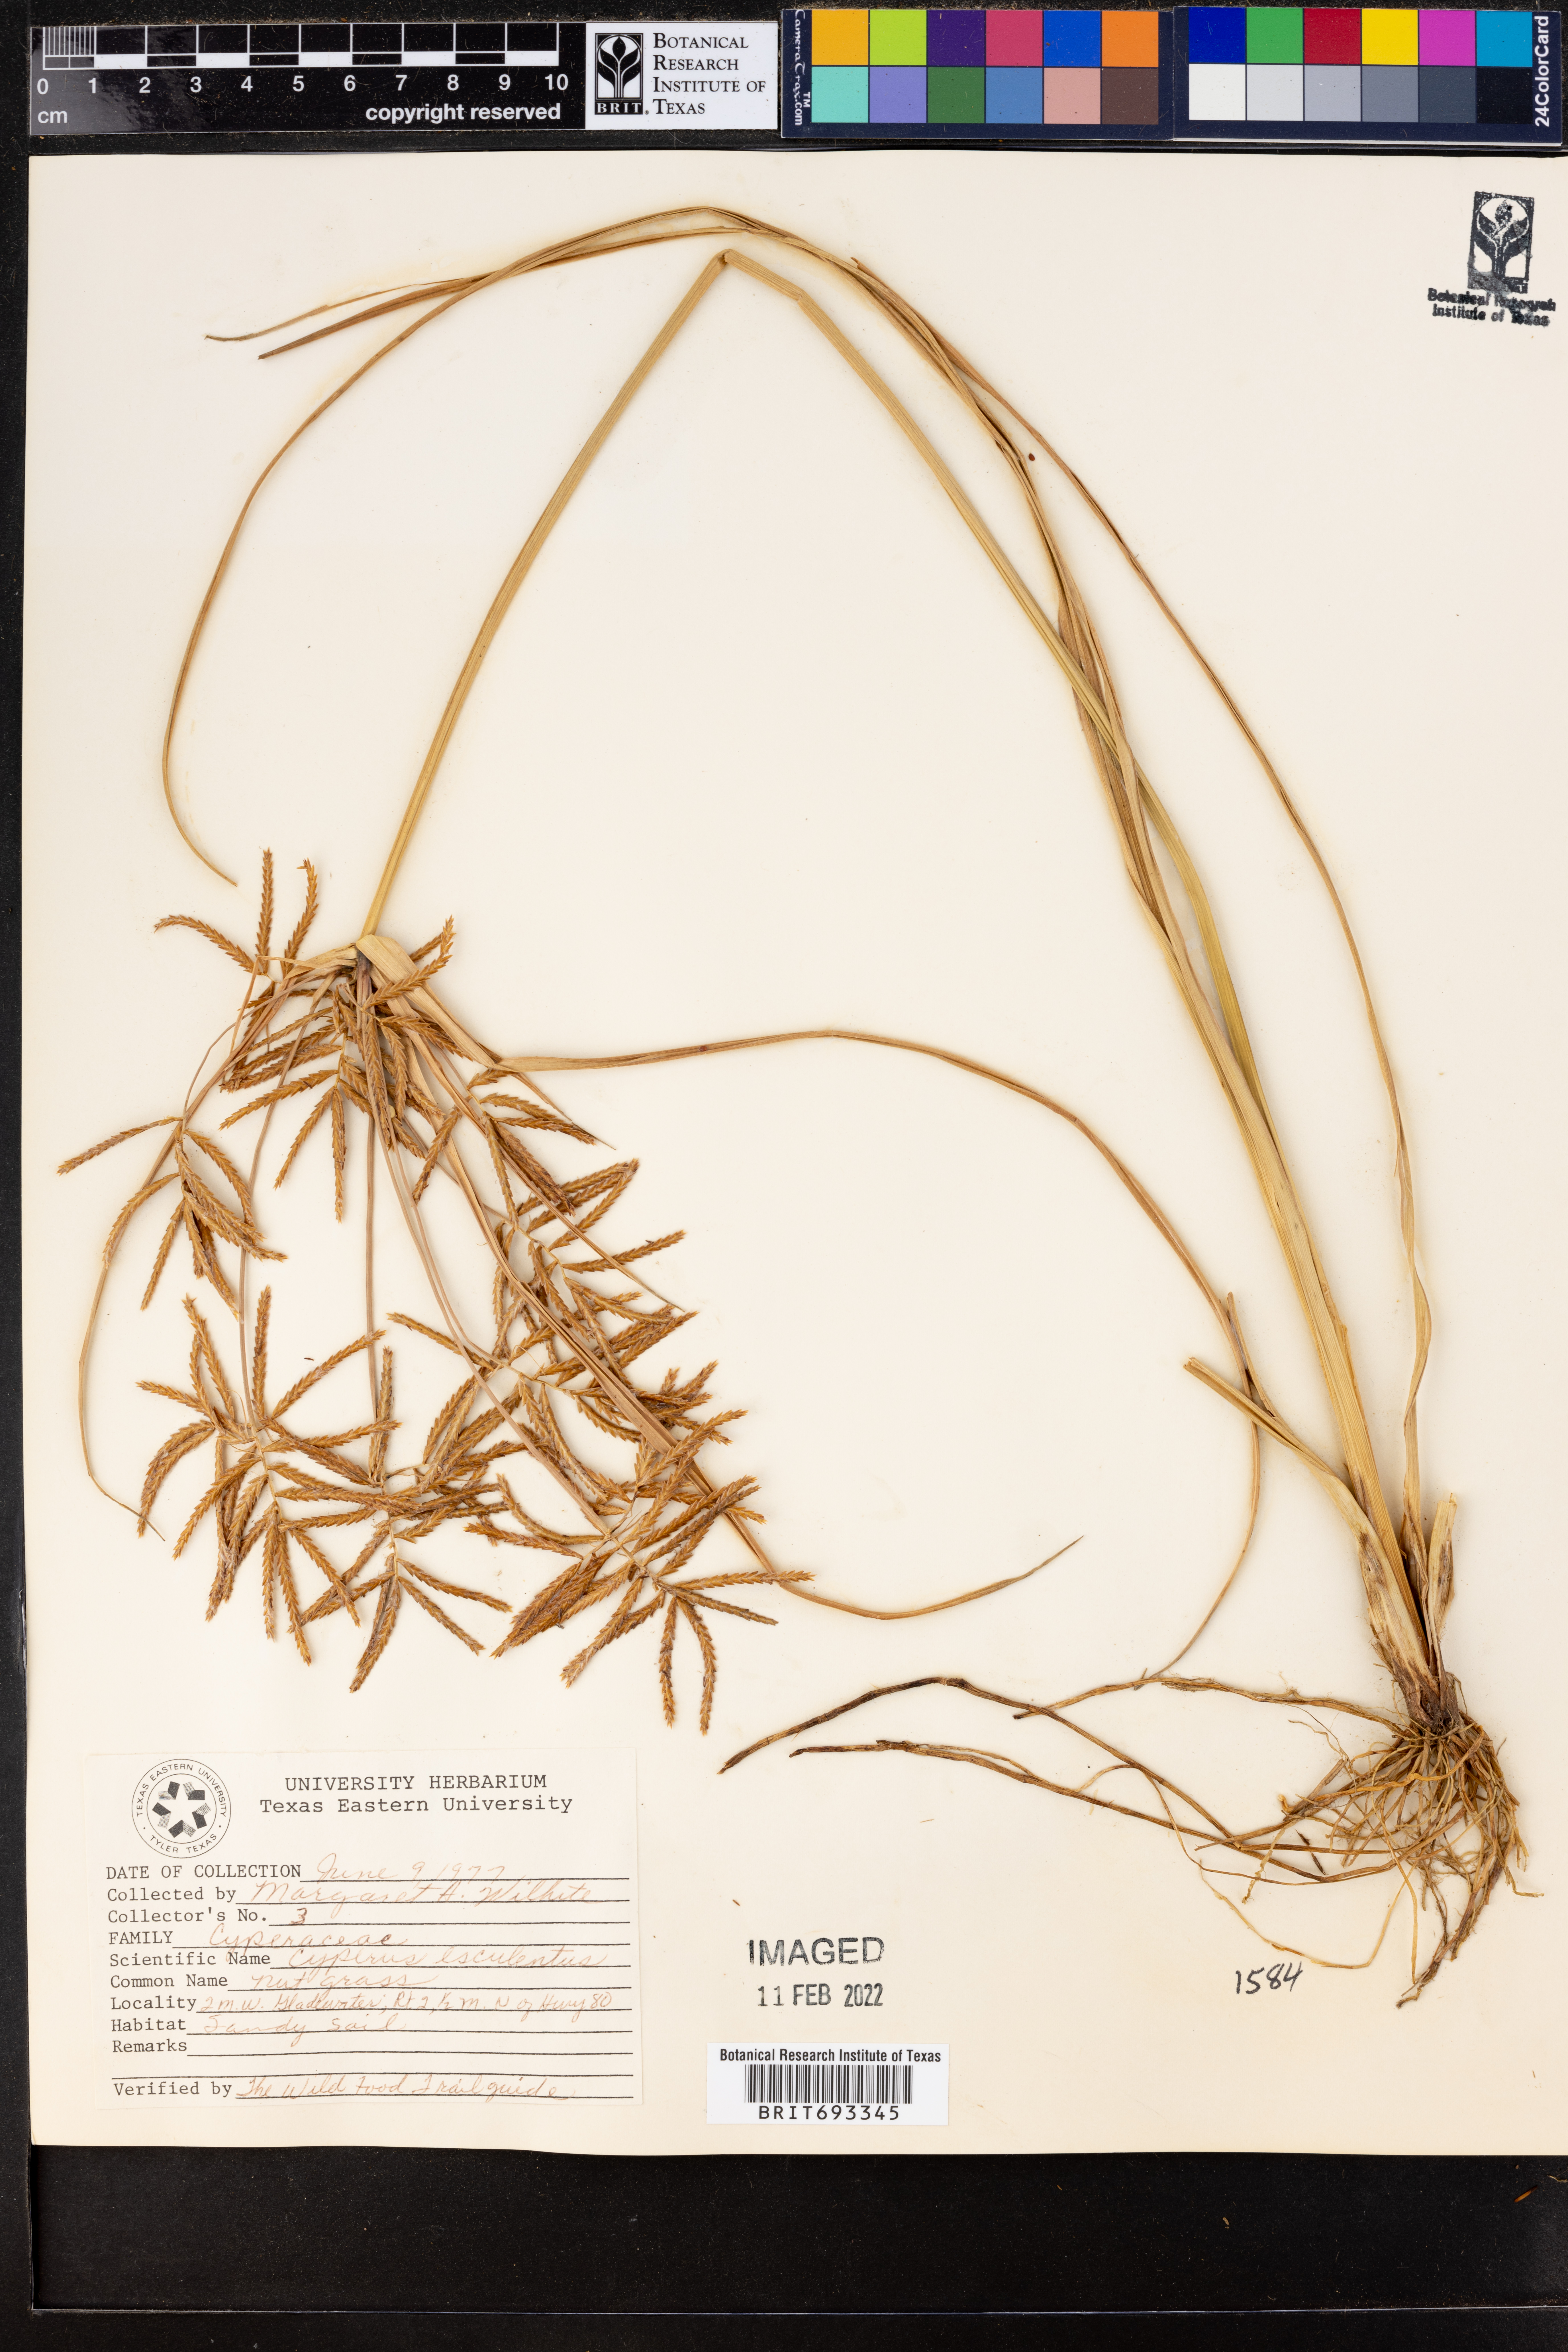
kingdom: Plantae
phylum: Tracheophyta
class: Liliopsida
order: Poales
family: Cyperaceae
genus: Cyperus
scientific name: Cyperus esculentus
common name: Yellow nutsedge
